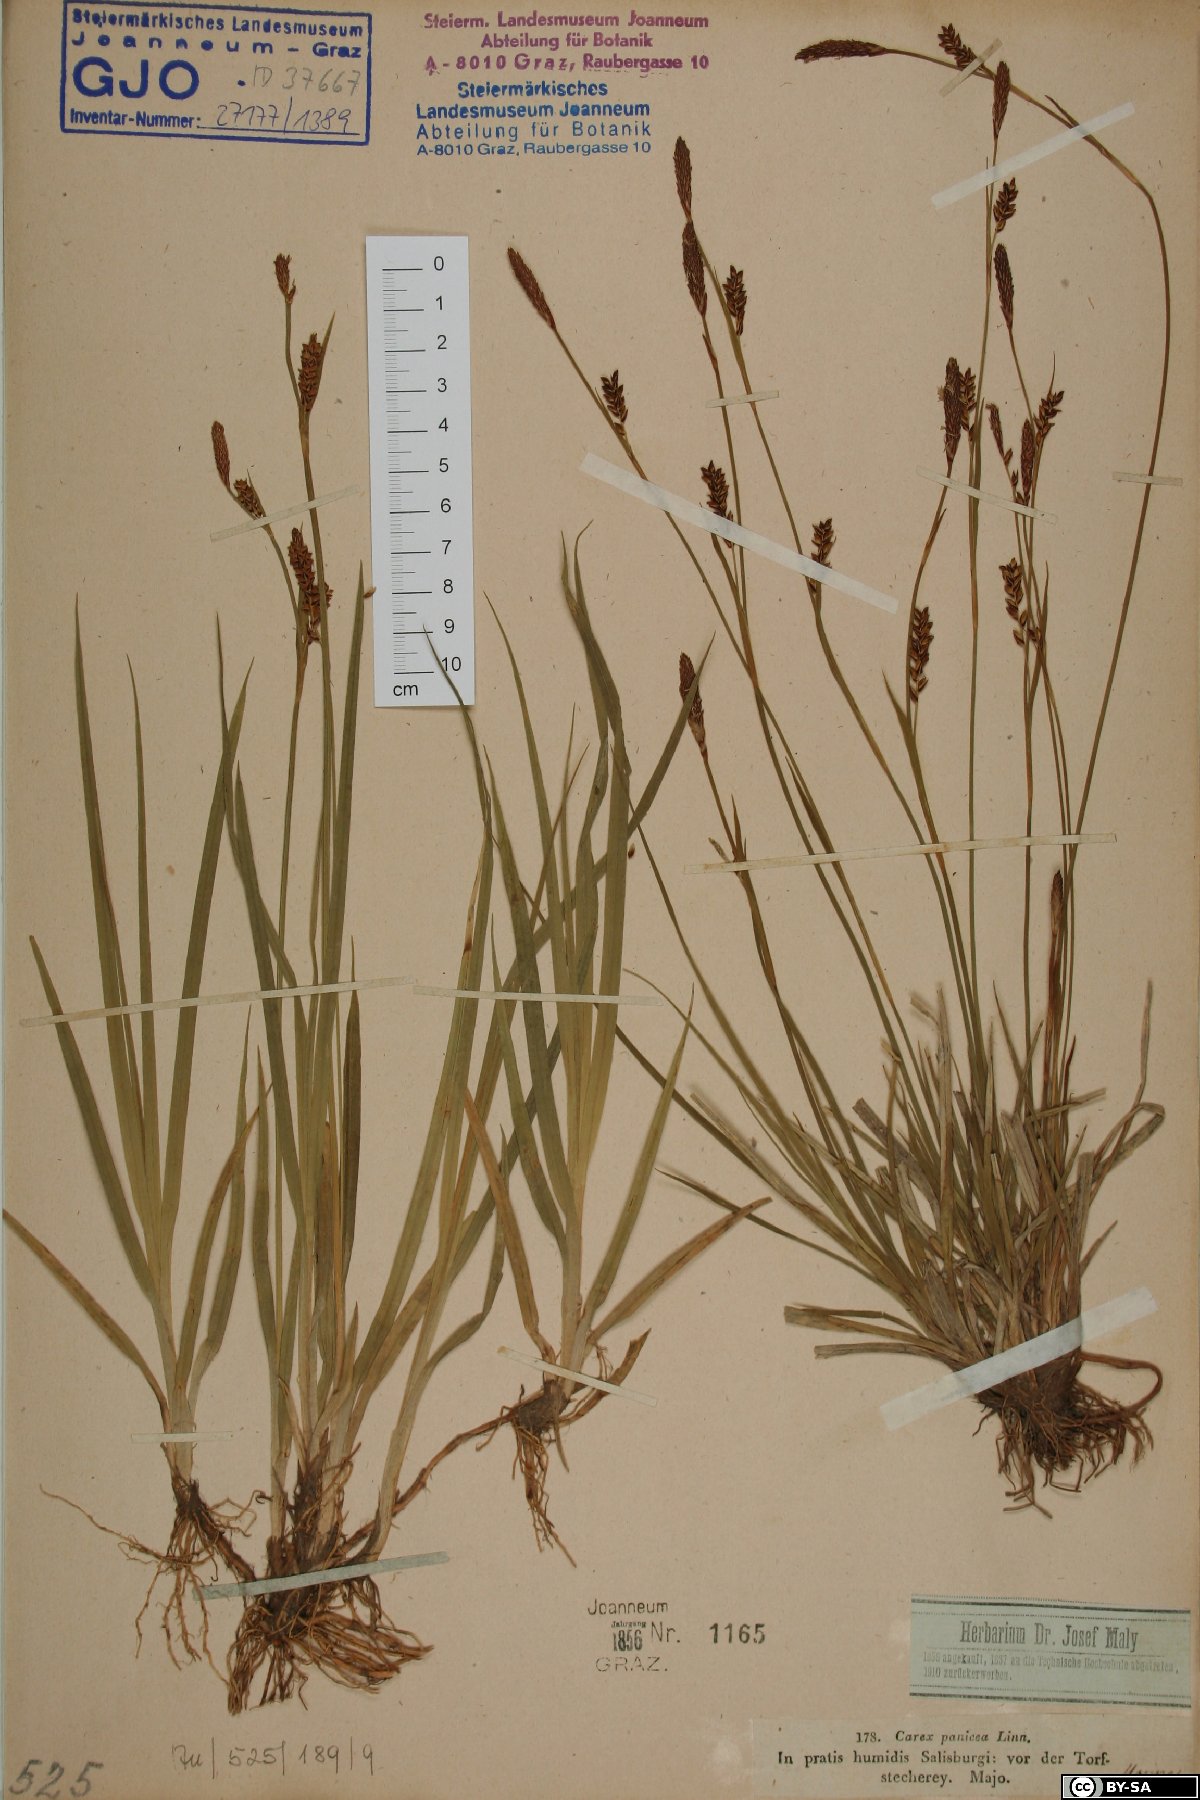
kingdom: Plantae
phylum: Tracheophyta
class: Liliopsida
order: Poales
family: Cyperaceae
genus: Carex
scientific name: Carex panicea
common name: Carnation sedge
